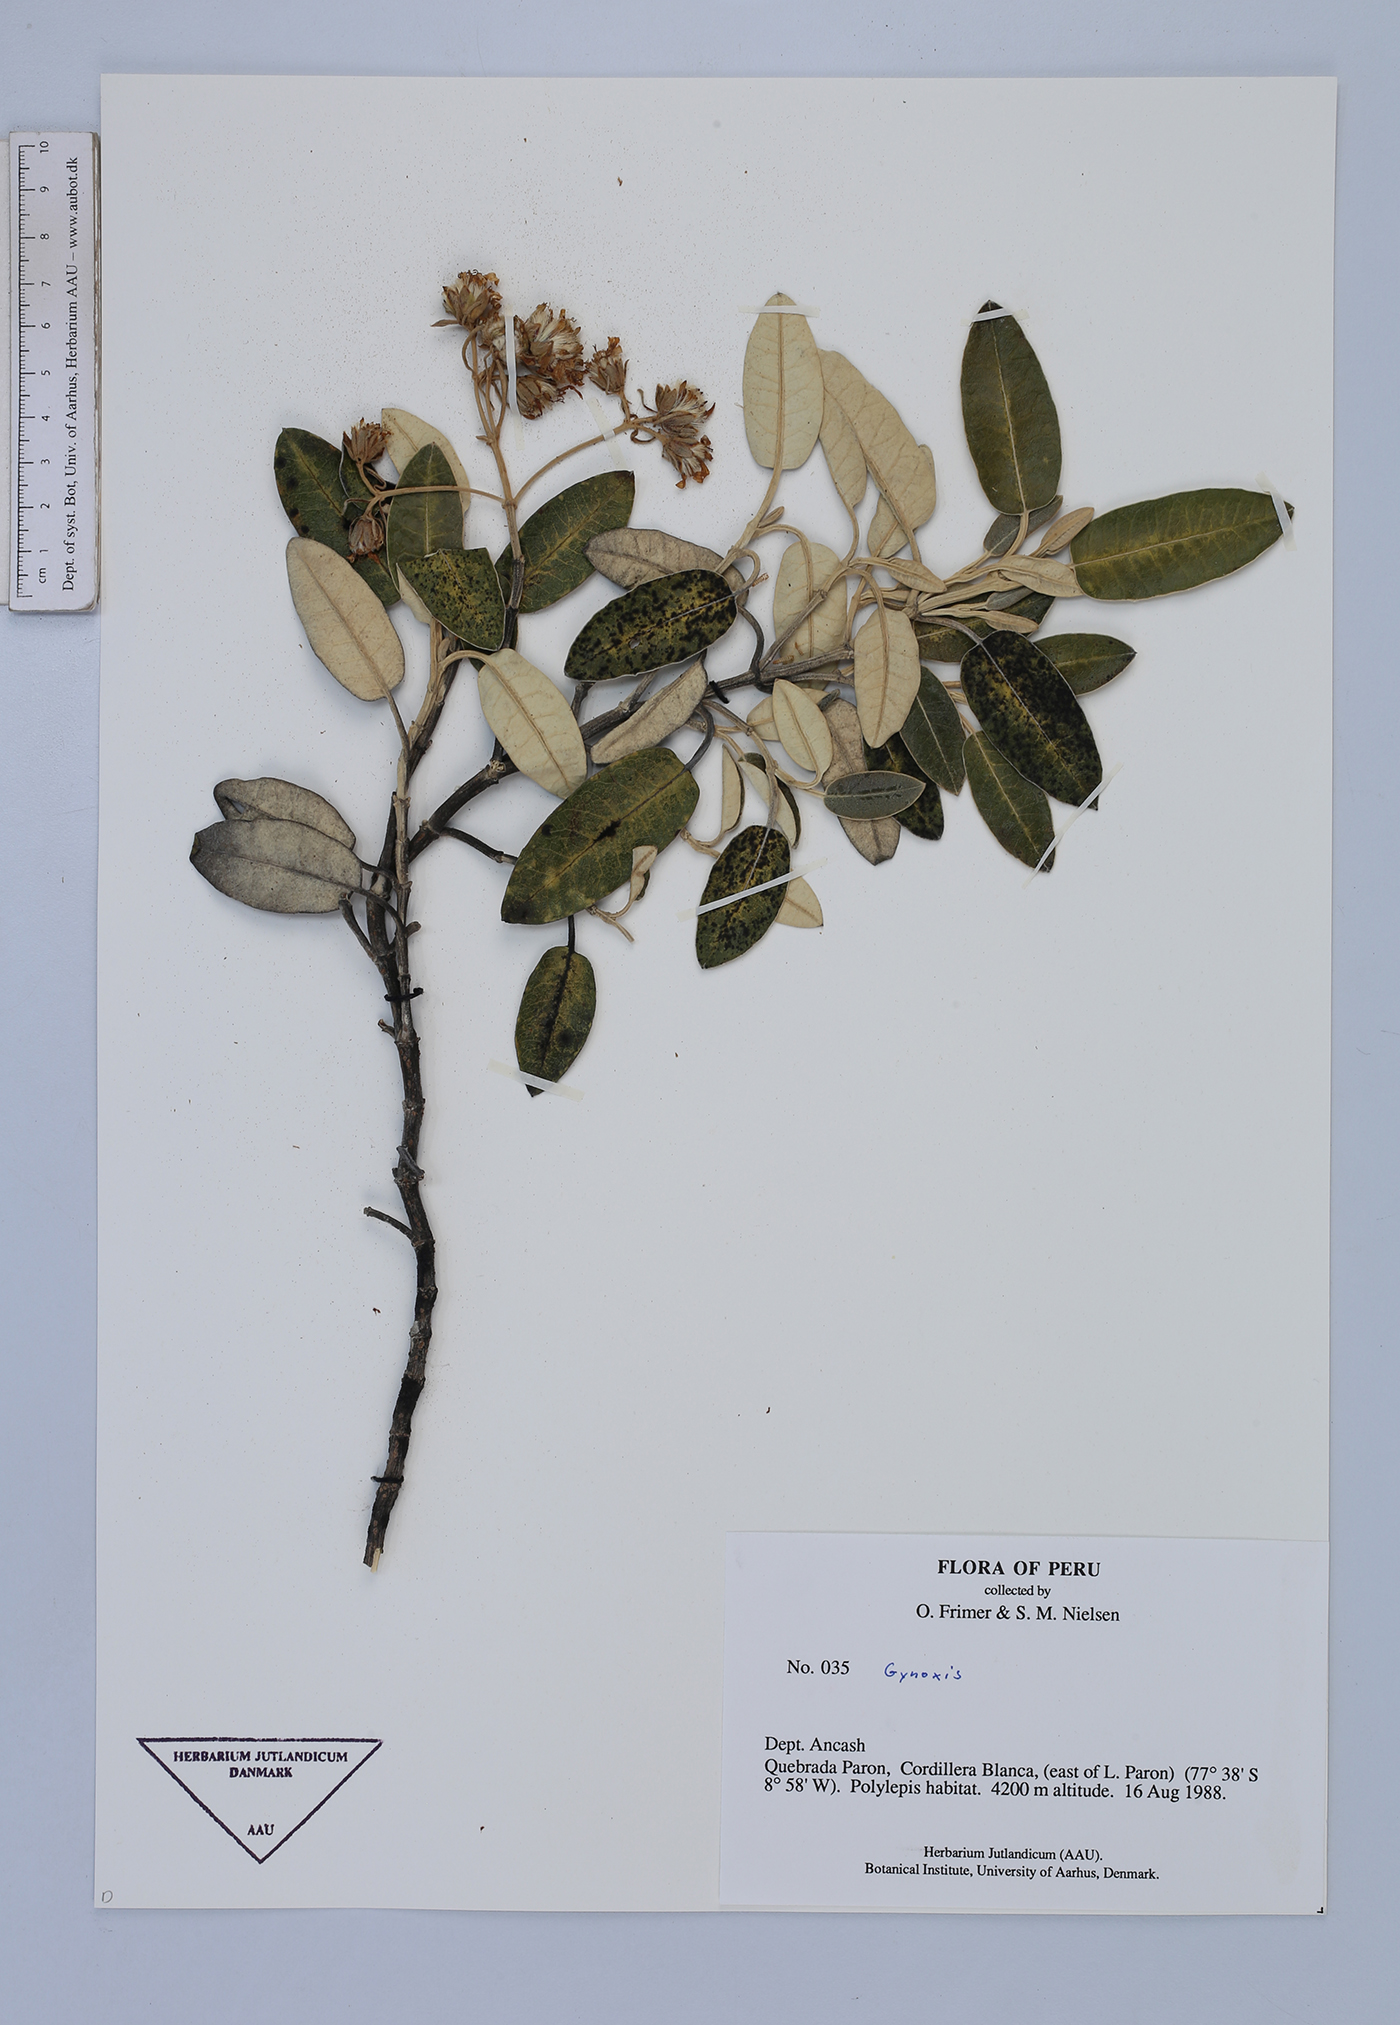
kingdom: Plantae
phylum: Tracheophyta
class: Magnoliopsida
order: Asterales
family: Asteraceae
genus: Gynoxys
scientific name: Gynoxys sodiroi
